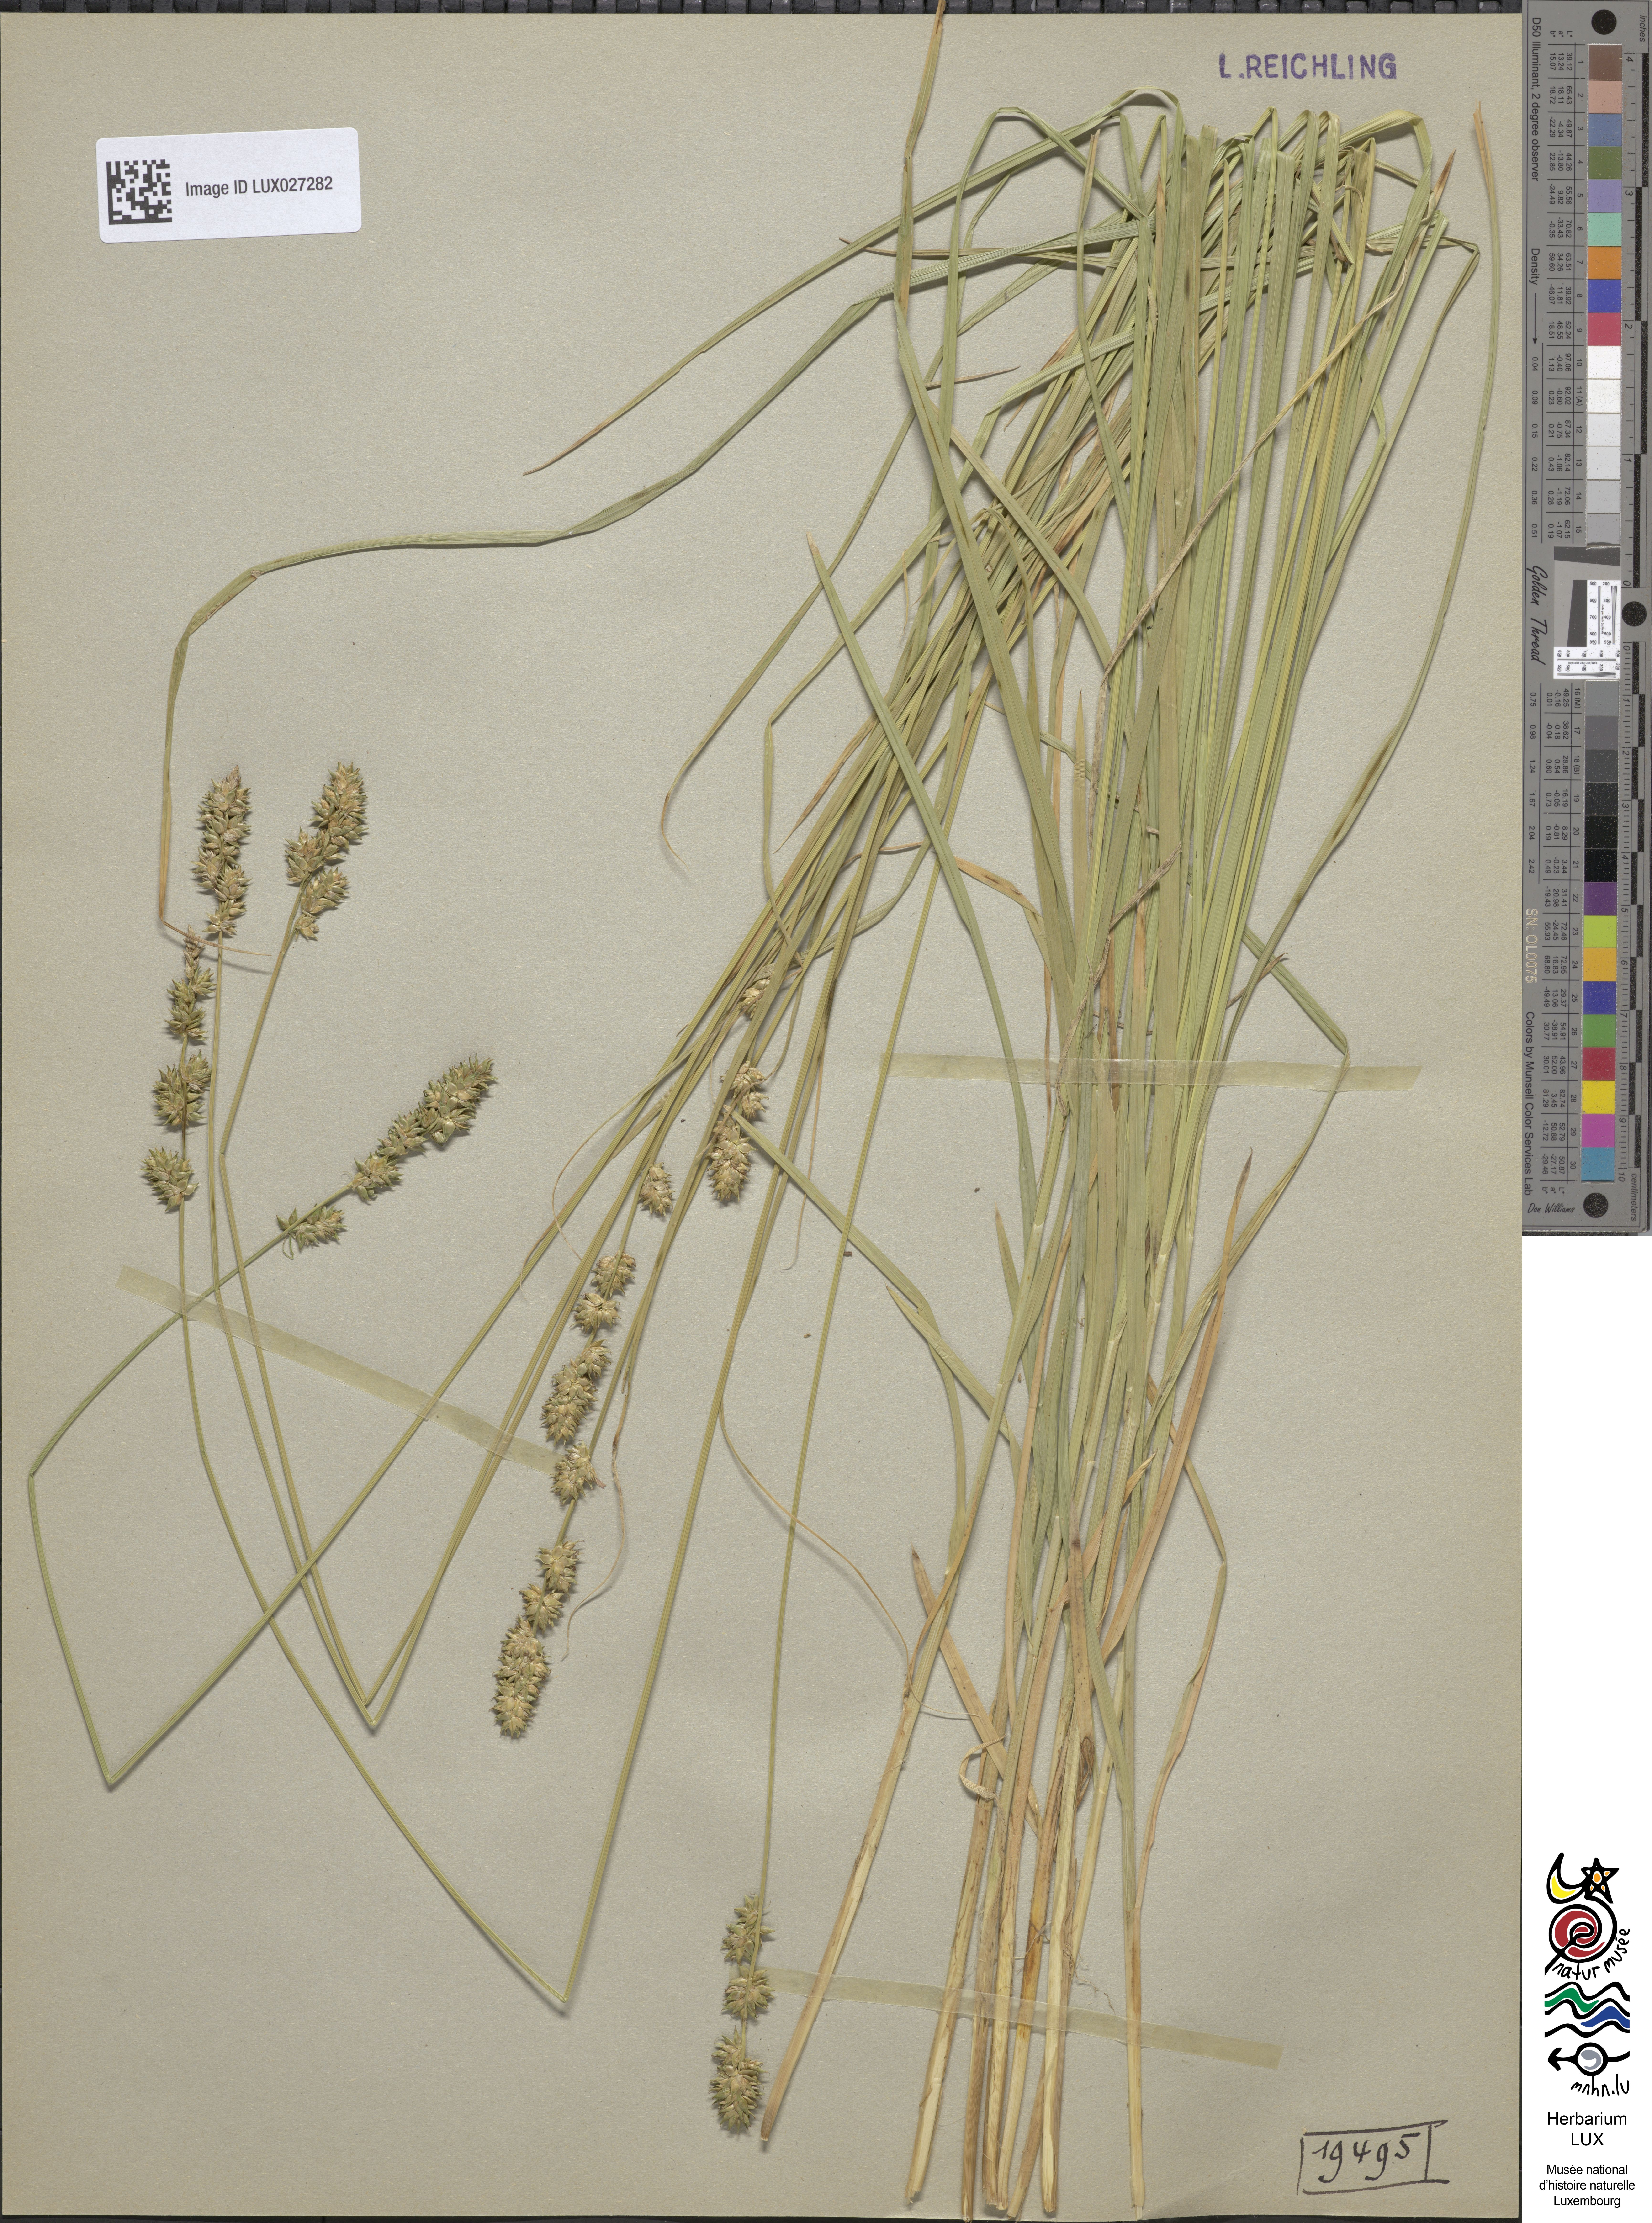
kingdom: Plantae
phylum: Tracheophyta
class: Liliopsida
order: Poales
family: Cyperaceae
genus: Carex
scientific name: Carex divulsa
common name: Grassland sedge
